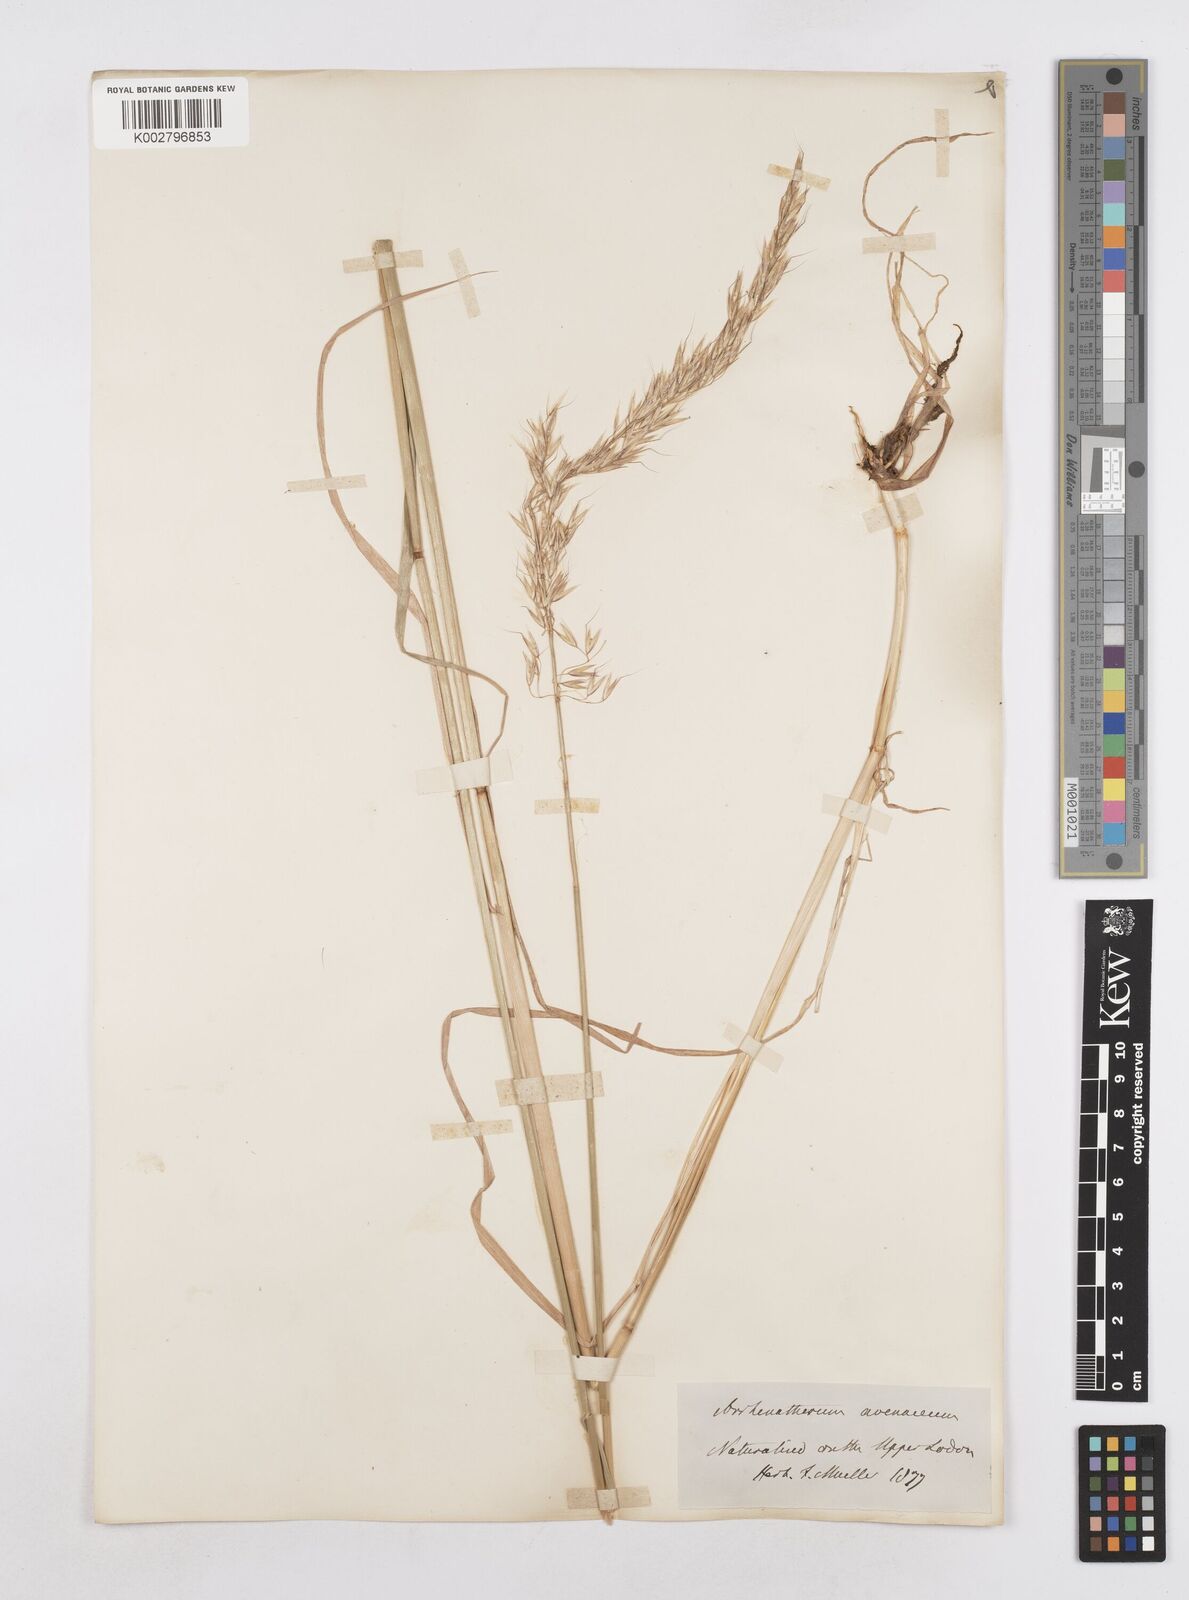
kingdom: Plantae
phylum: Tracheophyta
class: Liliopsida
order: Poales
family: Poaceae
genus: Arrhenatherum
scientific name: Arrhenatherum elatius
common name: Tall oatgrass
